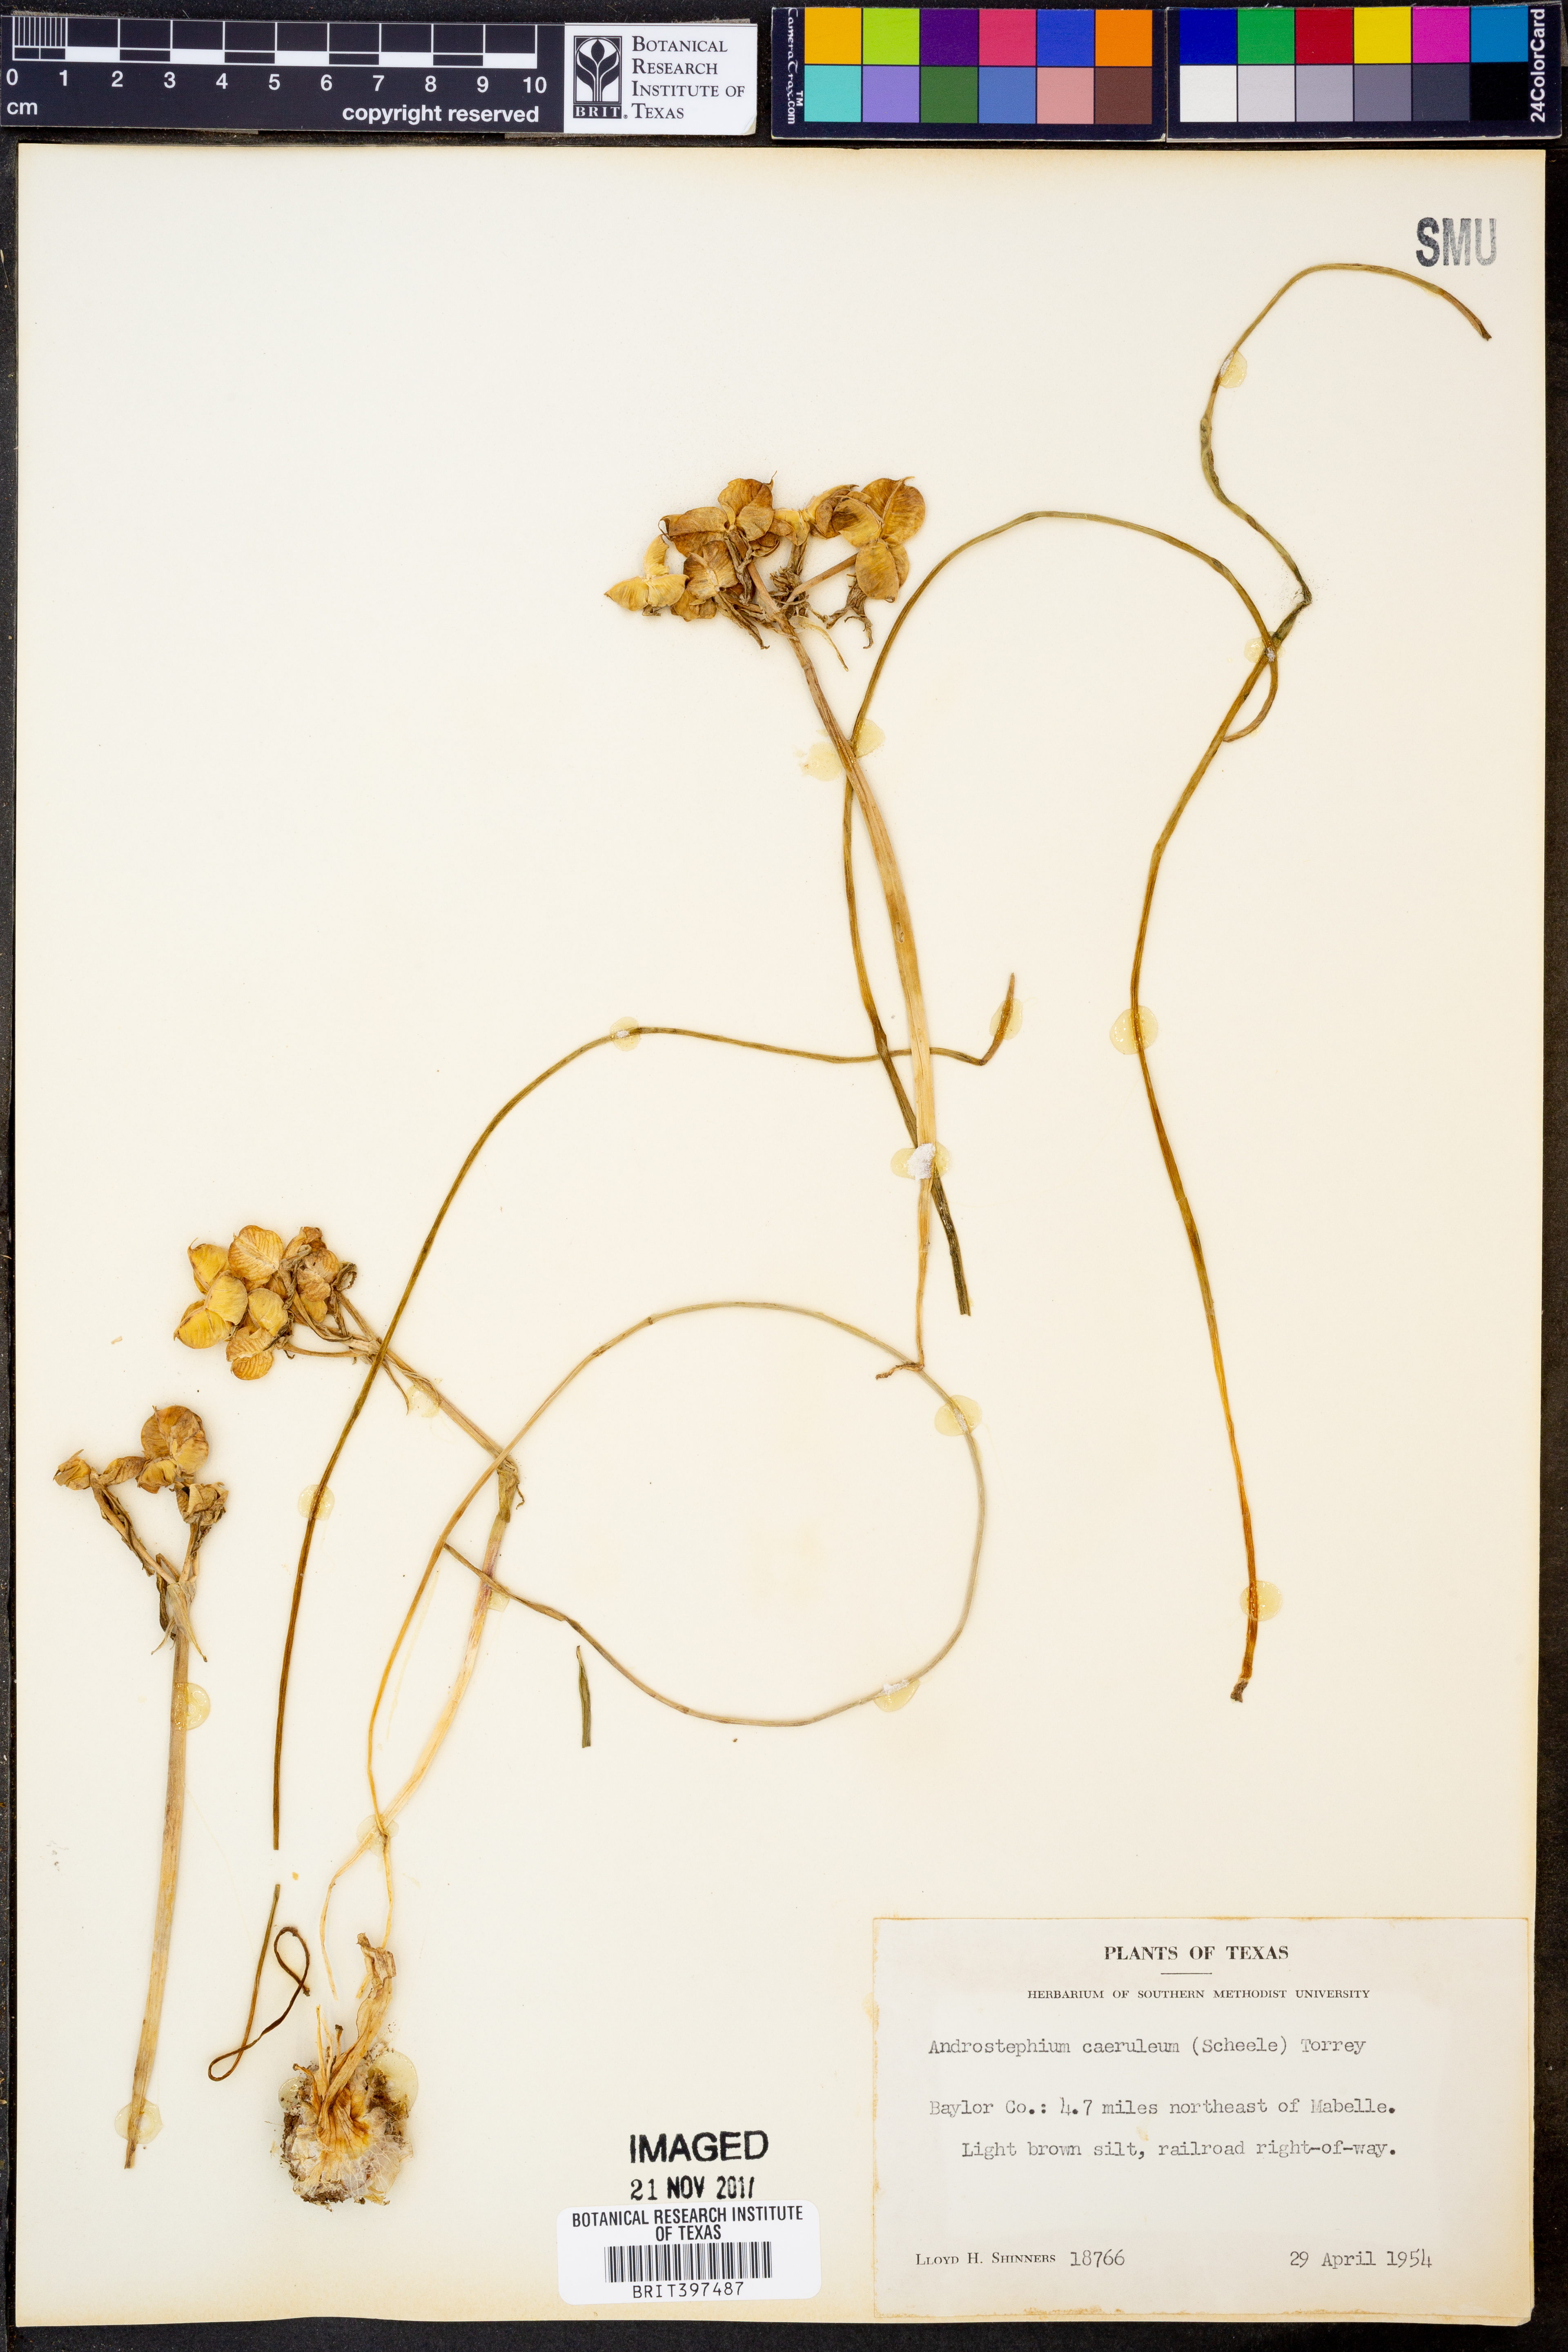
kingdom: Plantae
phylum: Tracheophyta
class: Liliopsida
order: Asparagales
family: Asparagaceae
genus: Androstephium
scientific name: Androstephium caeruleum
